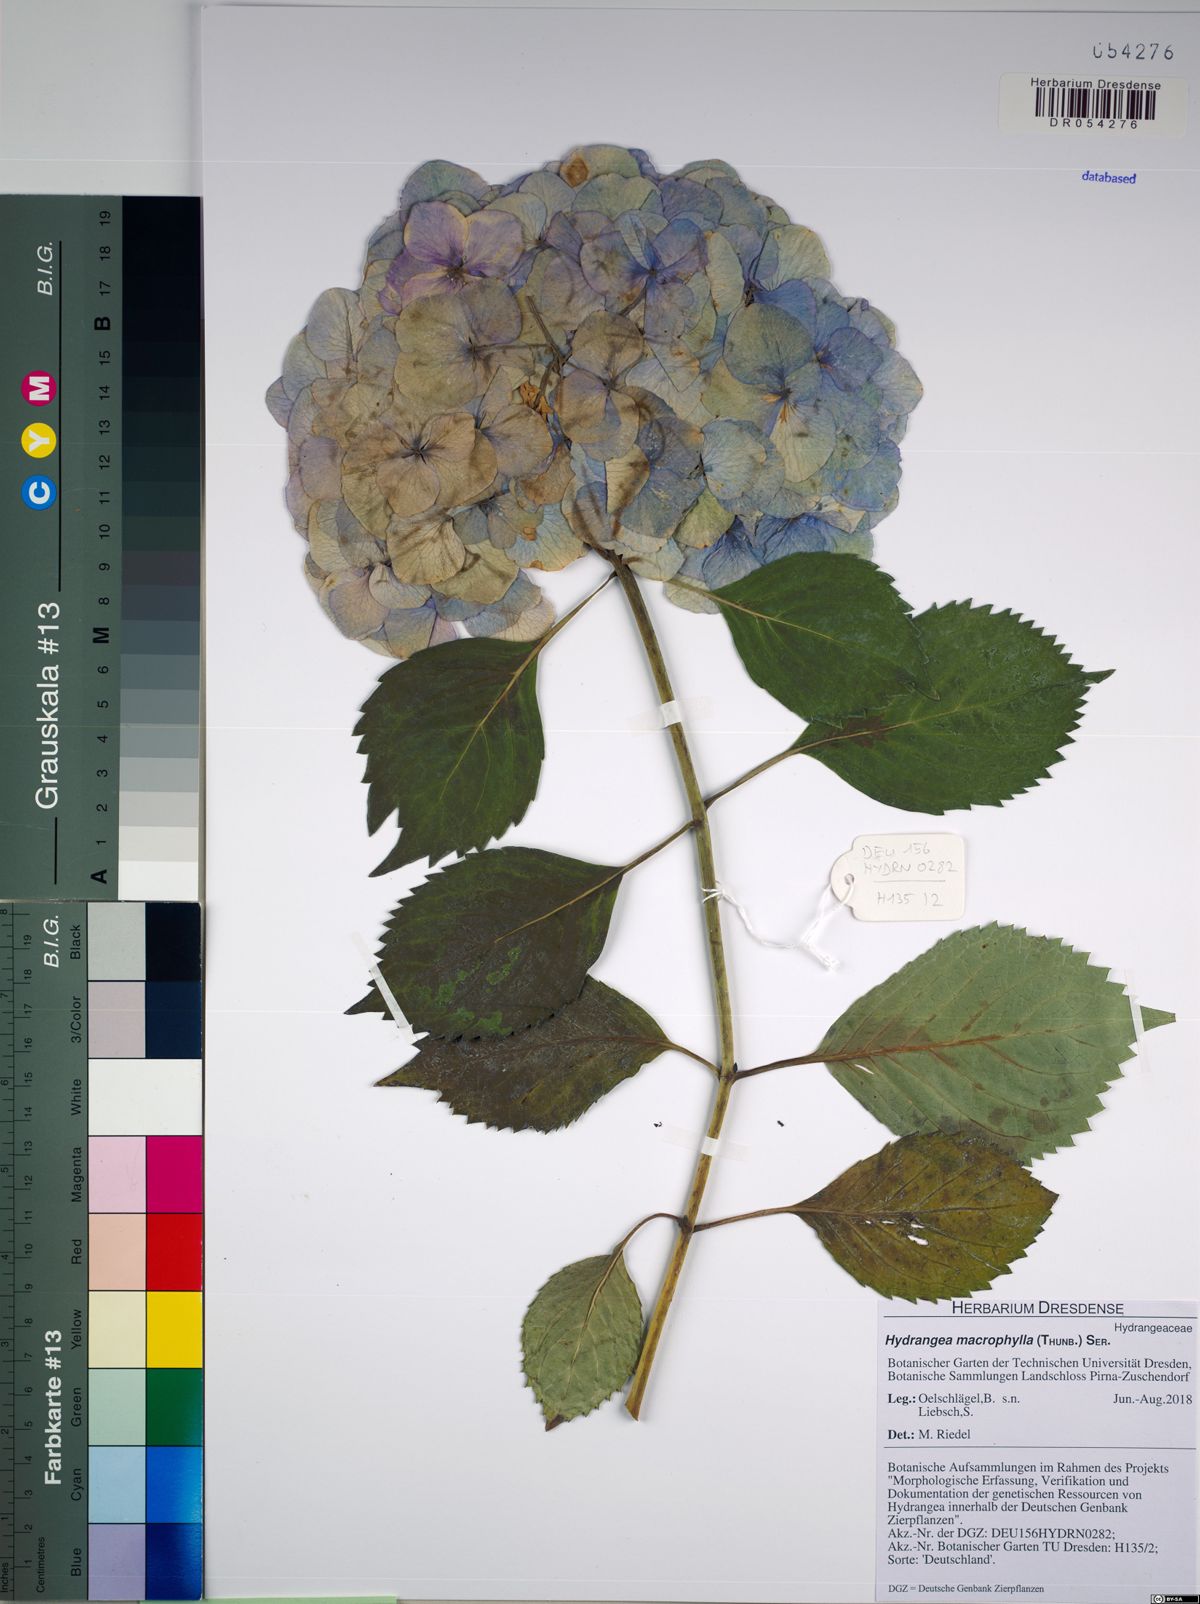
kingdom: Plantae
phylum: Tracheophyta
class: Magnoliopsida
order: Cornales
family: Hydrangeaceae
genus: Hydrangea
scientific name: Hydrangea macrophylla
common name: Hydrangea
